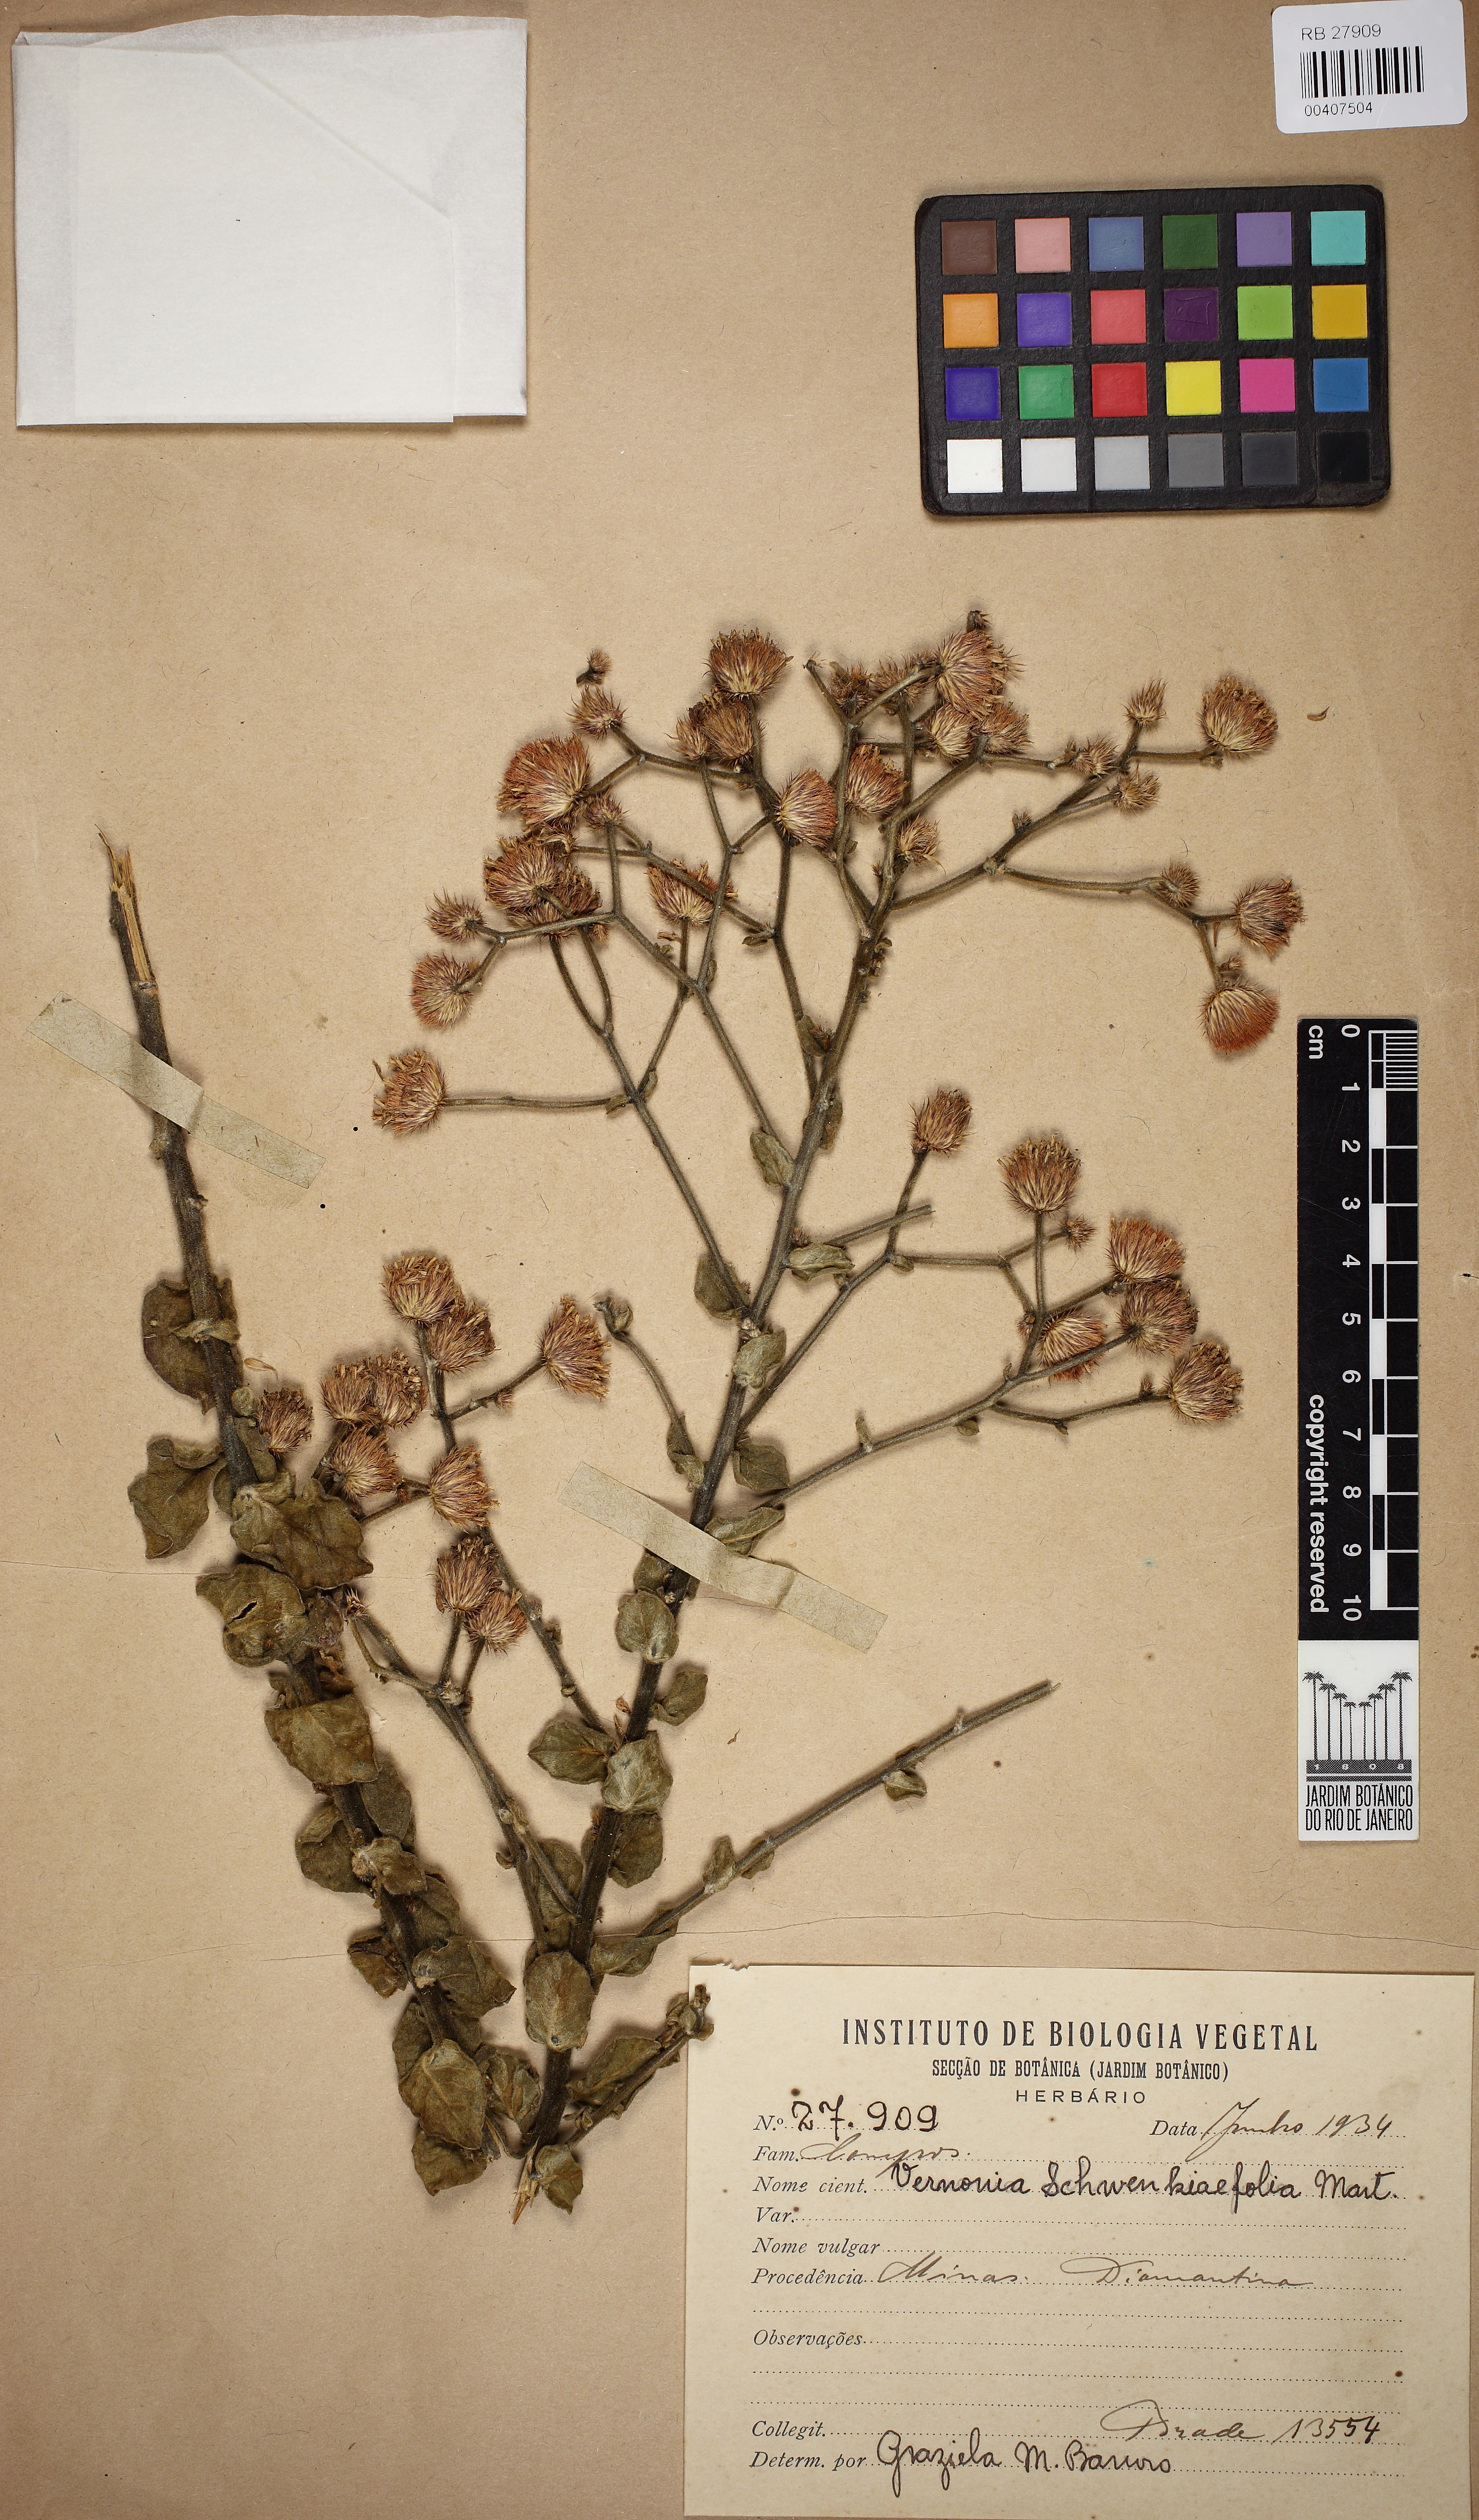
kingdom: Plantae
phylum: Tracheophyta
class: Magnoliopsida
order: Asterales
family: Asteraceae
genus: Echinocoryne
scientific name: Echinocoryne schwenkiaefolia
